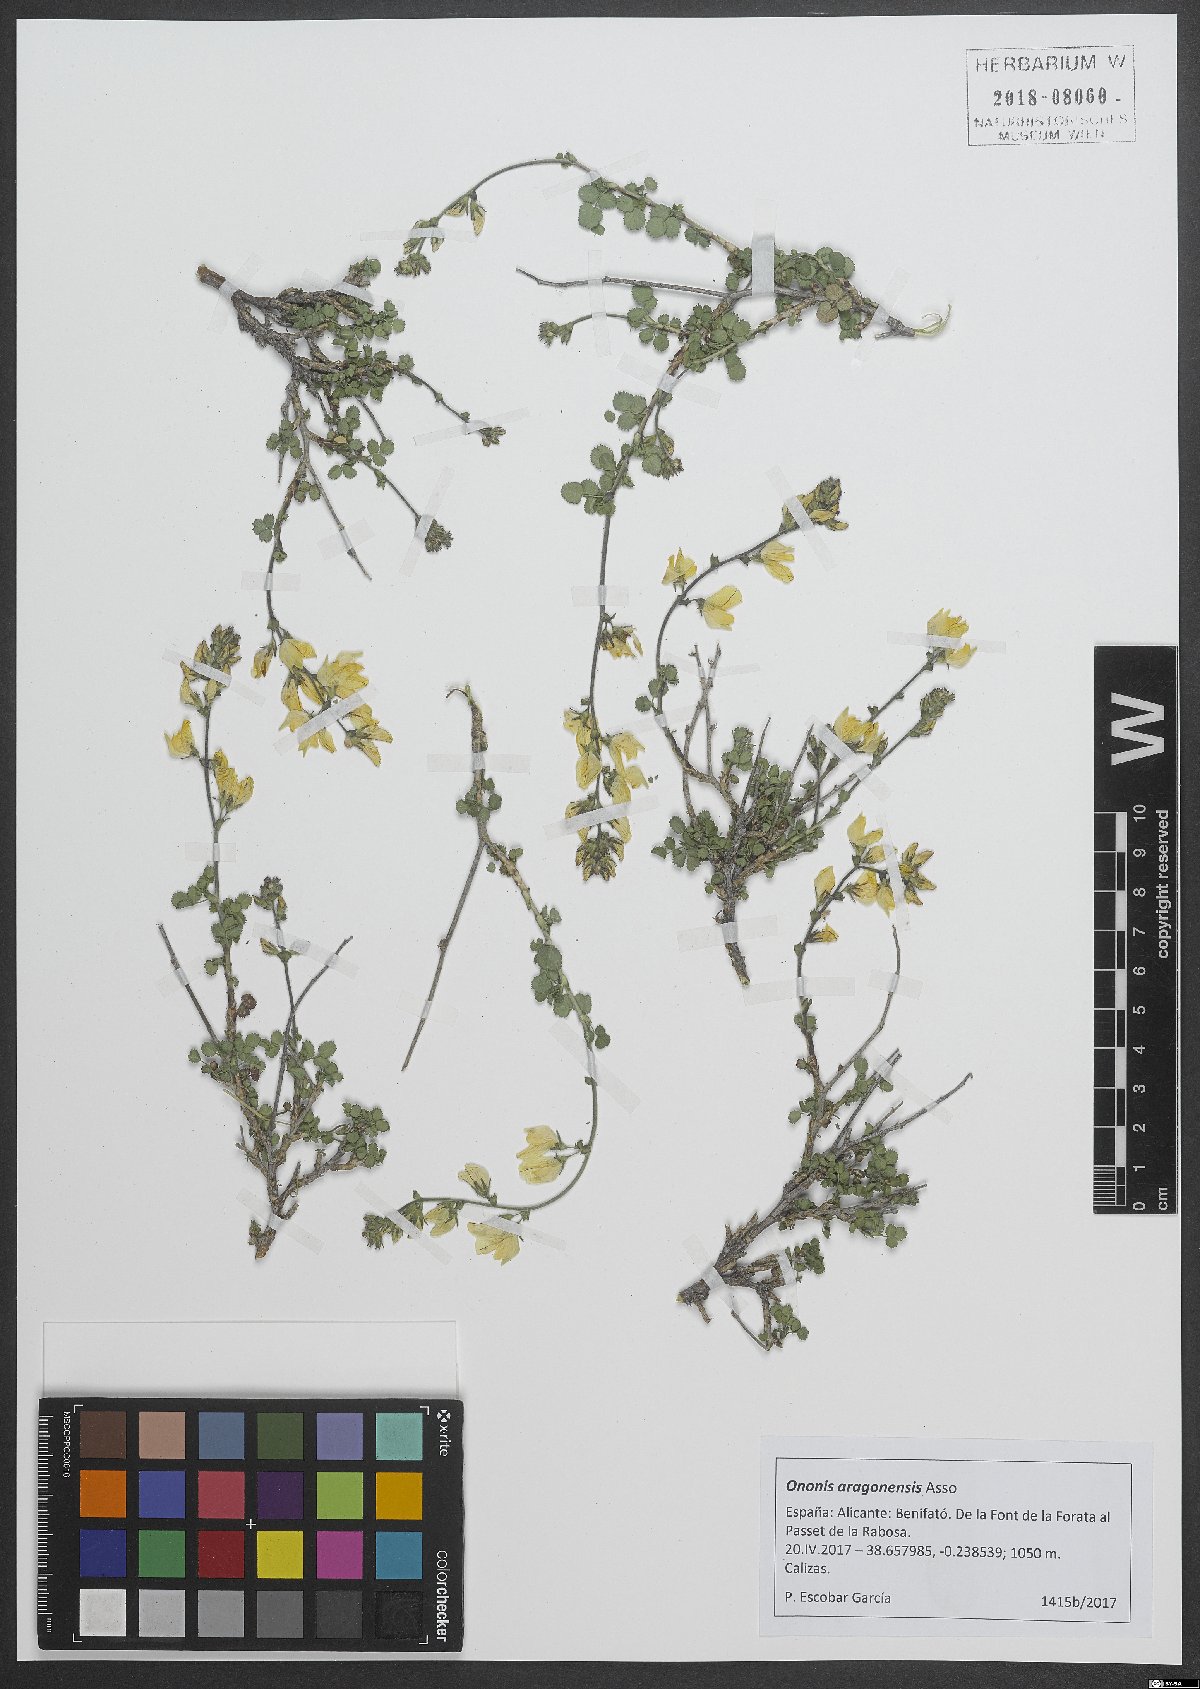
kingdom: Plantae
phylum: Tracheophyta
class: Magnoliopsida
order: Fabales
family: Fabaceae
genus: Ononis
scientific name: Ononis aragonensis
